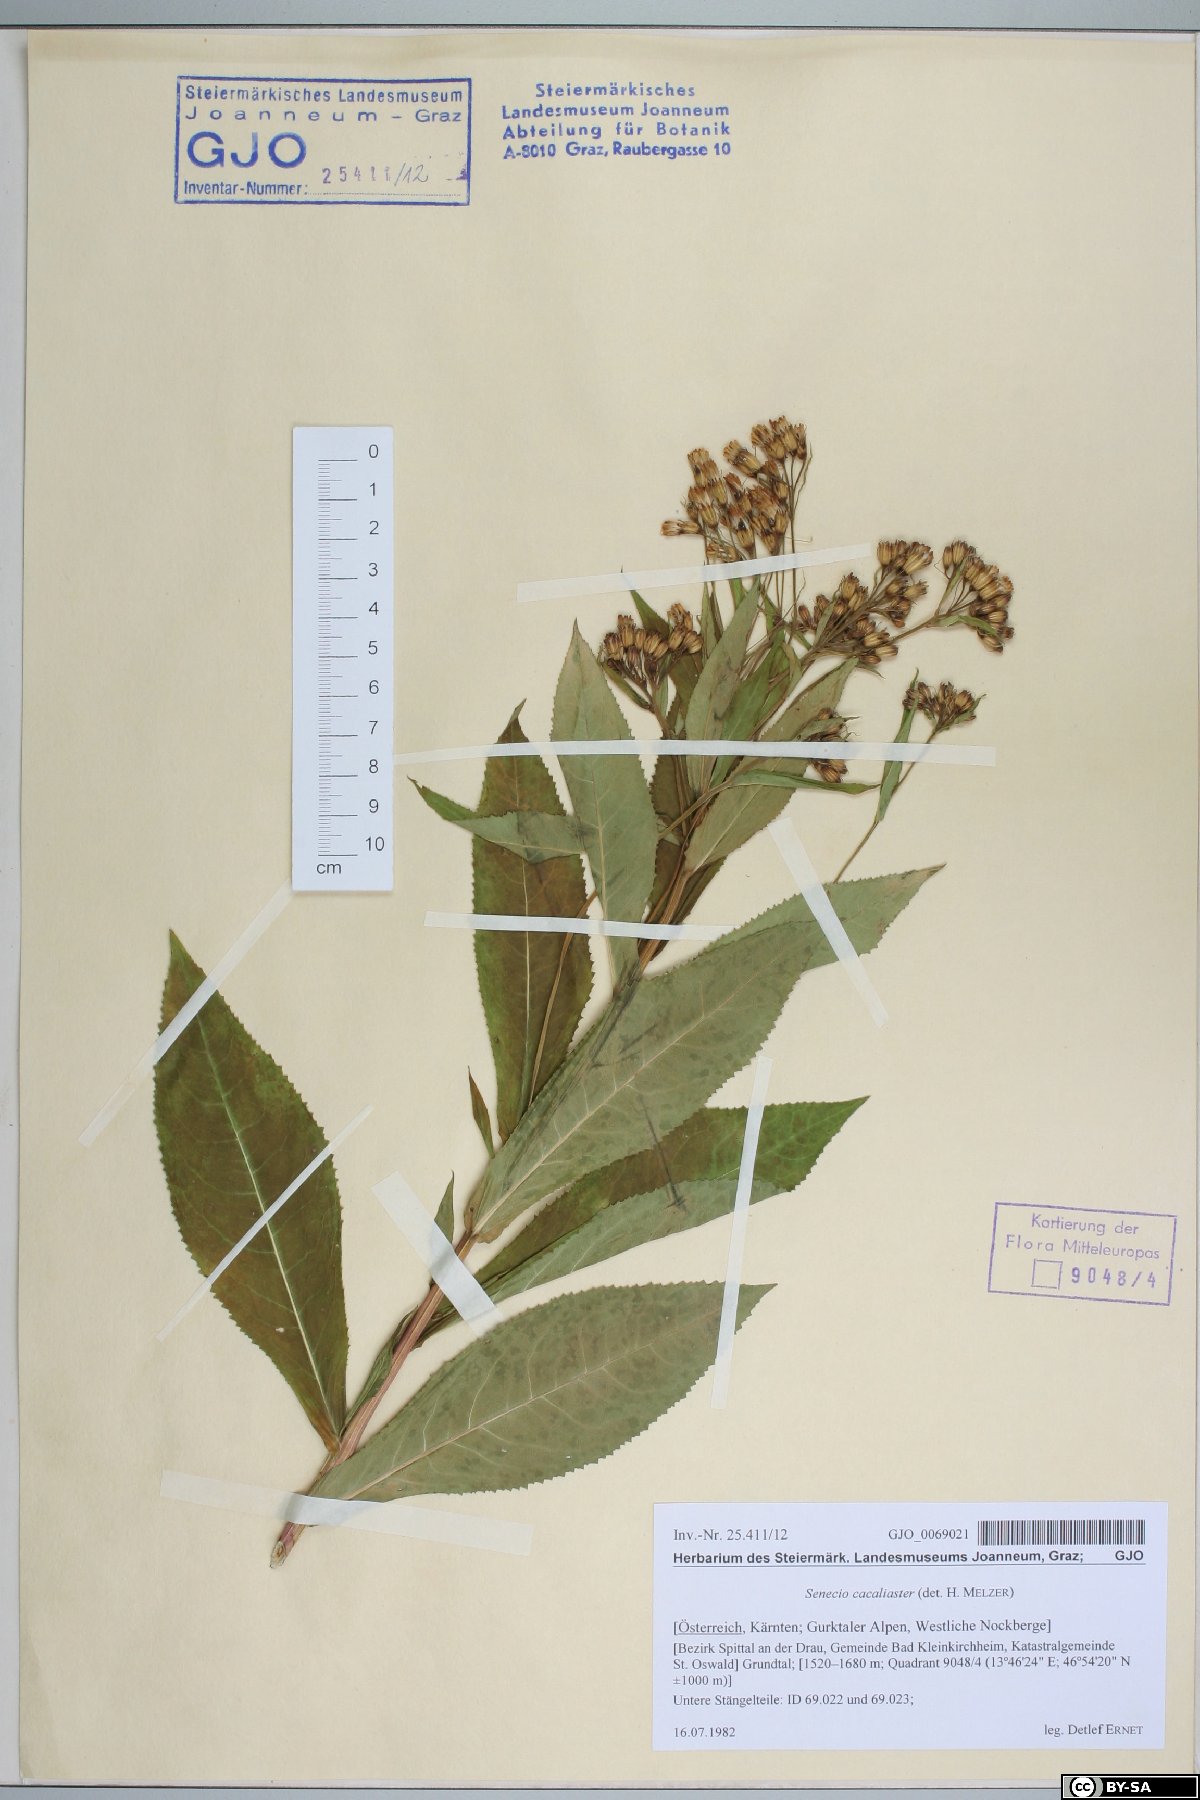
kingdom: Plantae
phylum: Tracheophyta
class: Magnoliopsida
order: Asterales
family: Asteraceae
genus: Senecio
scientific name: Senecio cacaliaster
